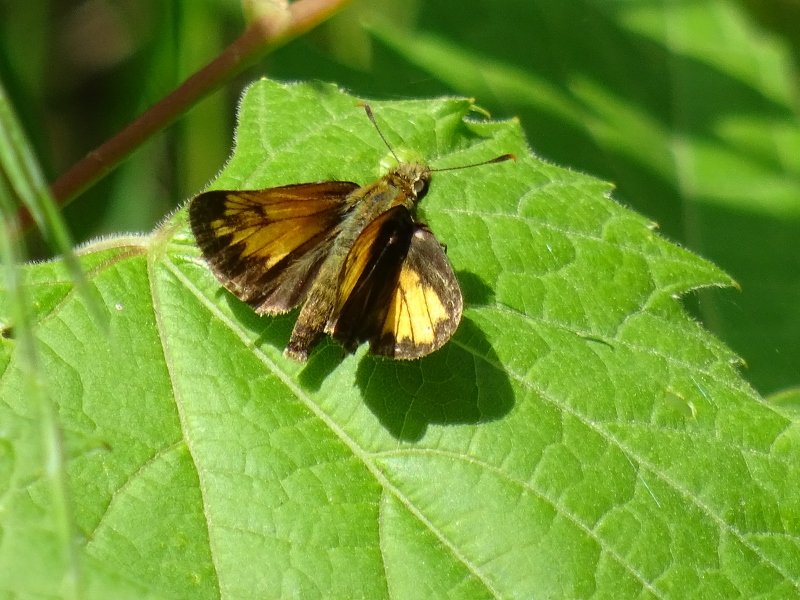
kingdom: Animalia
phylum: Arthropoda
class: Insecta
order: Lepidoptera
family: Hesperiidae
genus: Lon
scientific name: Lon hobomok
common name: Hobomok Skipper
